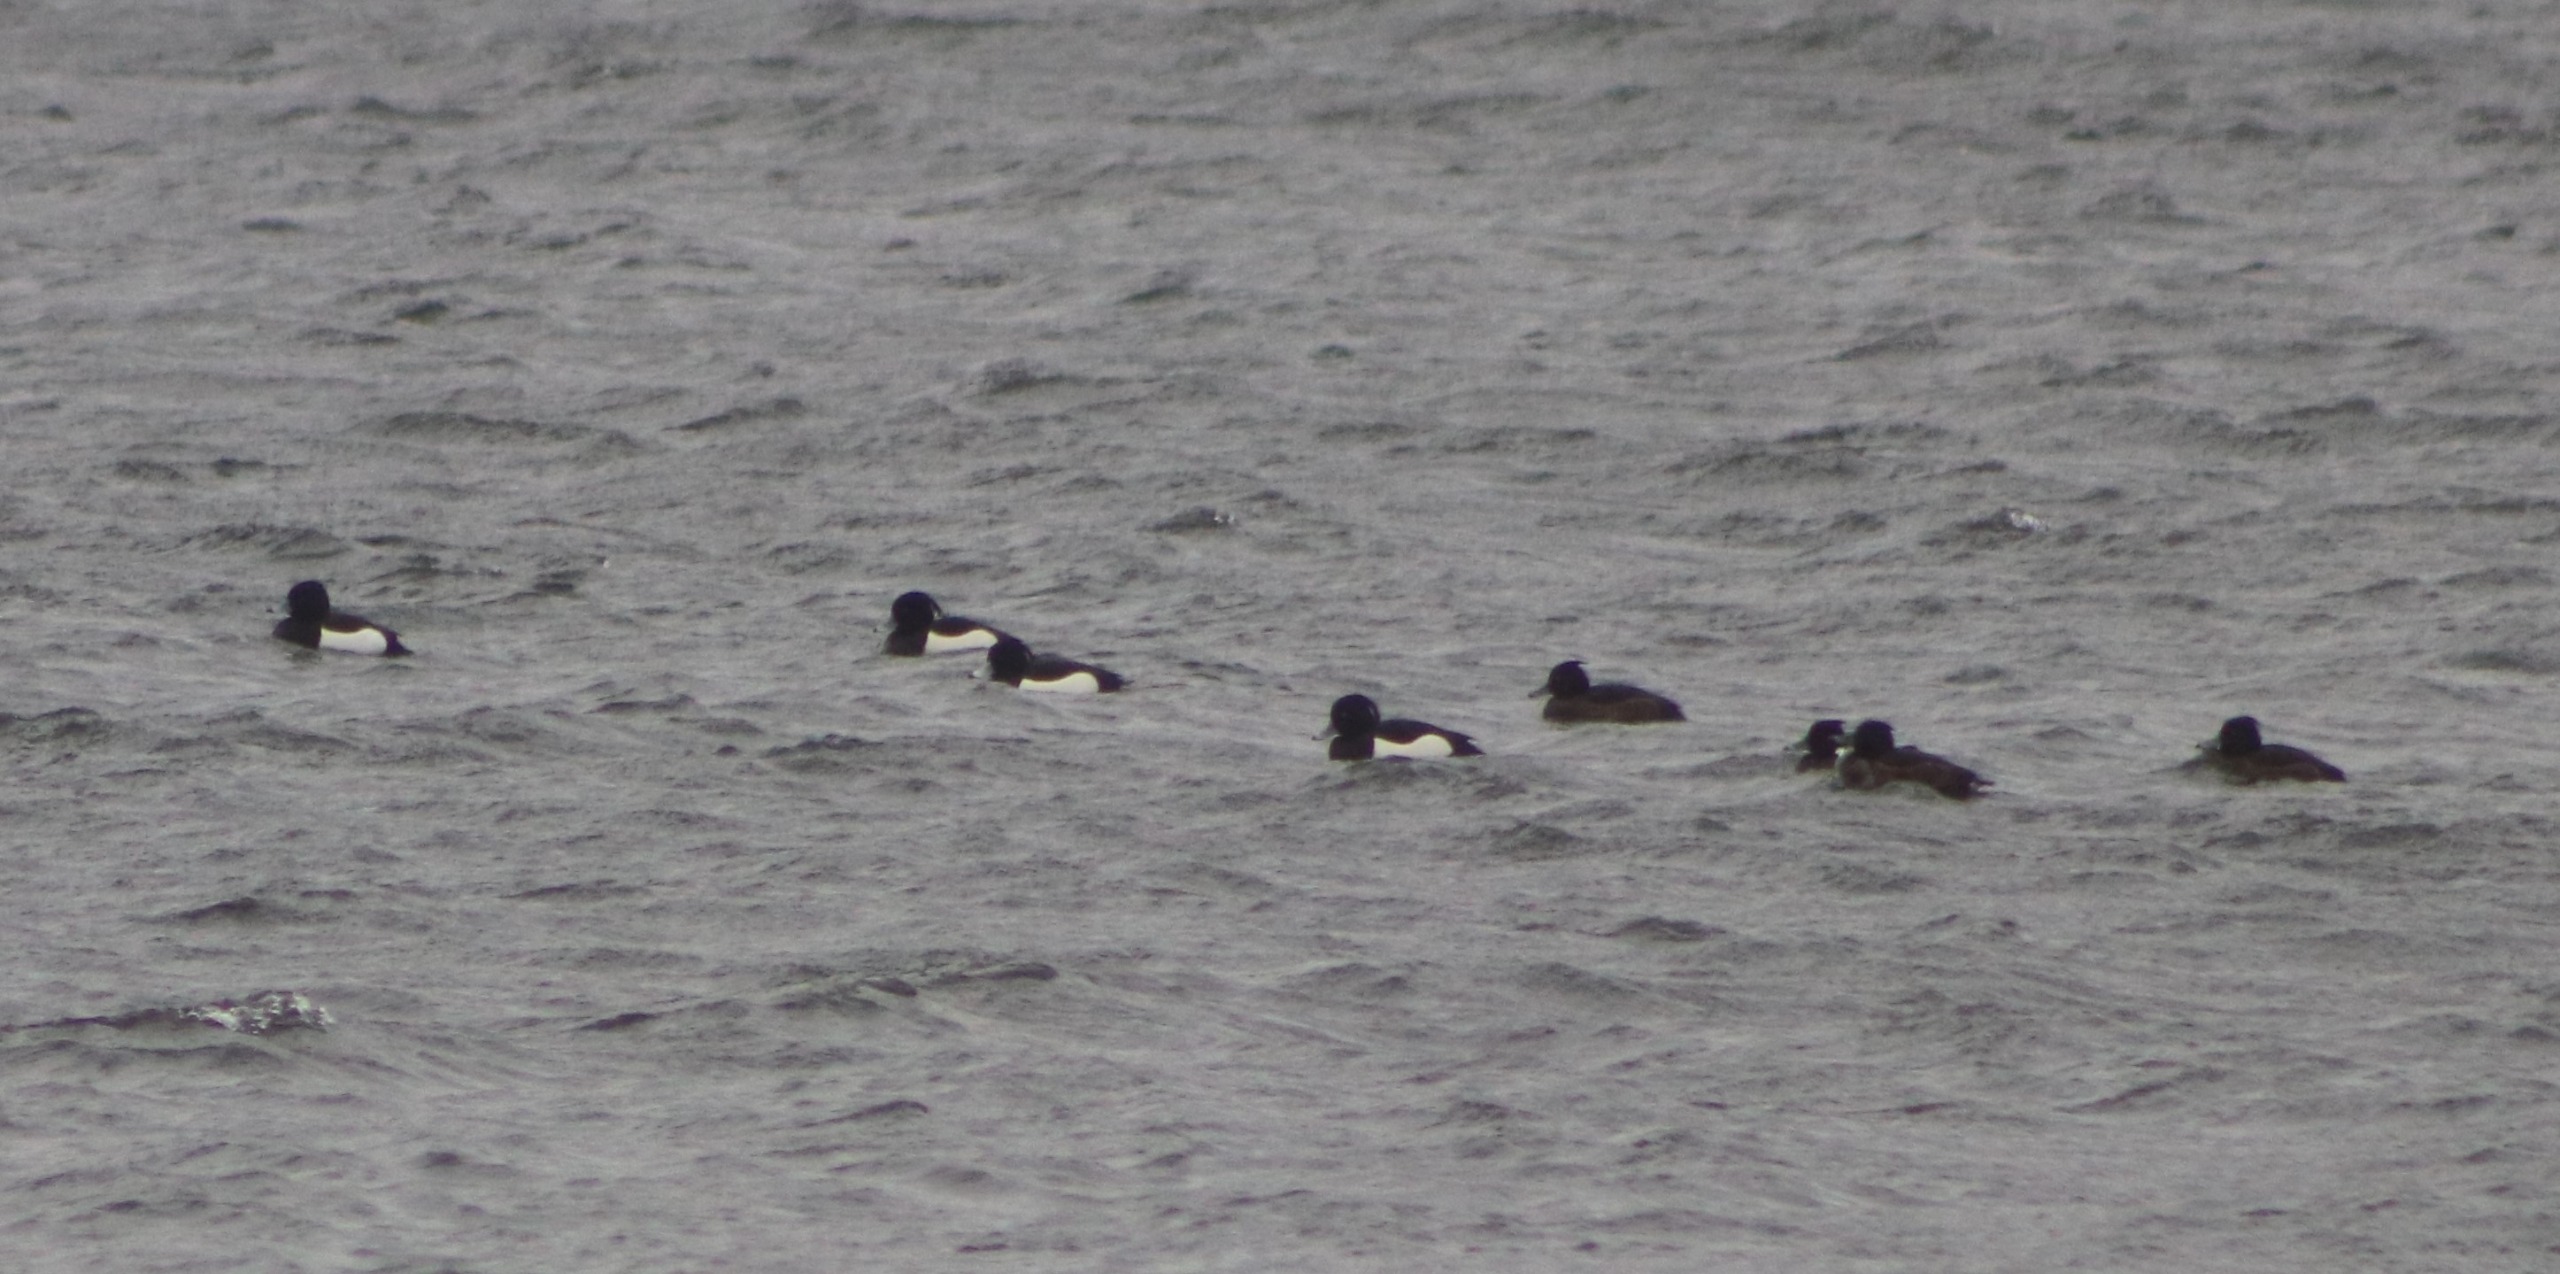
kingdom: Animalia
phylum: Chordata
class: Aves
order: Anseriformes
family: Anatidae
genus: Aythya
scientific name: Aythya fuligula
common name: Troldand
